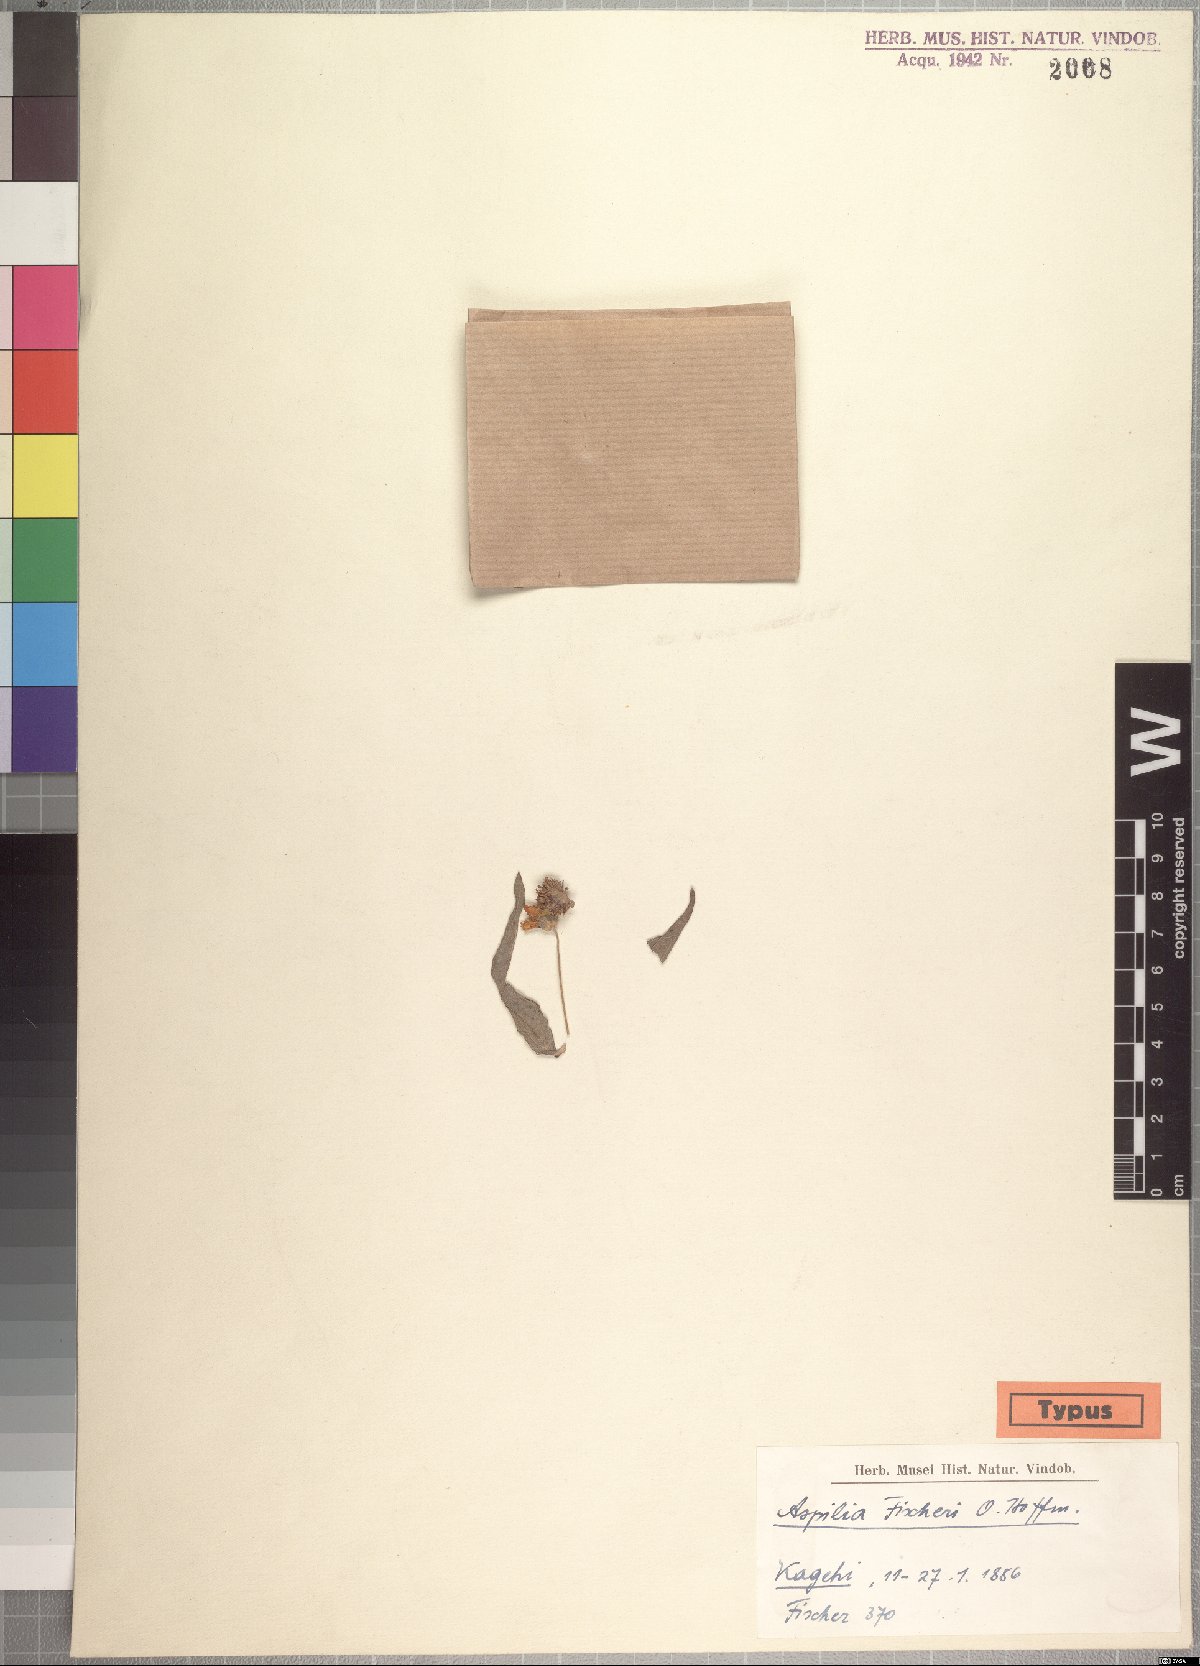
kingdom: Plantae
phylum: Tracheophyta
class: Magnoliopsida
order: Asterales
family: Asteraceae
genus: Aspilia
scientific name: Aspilia fischeri
